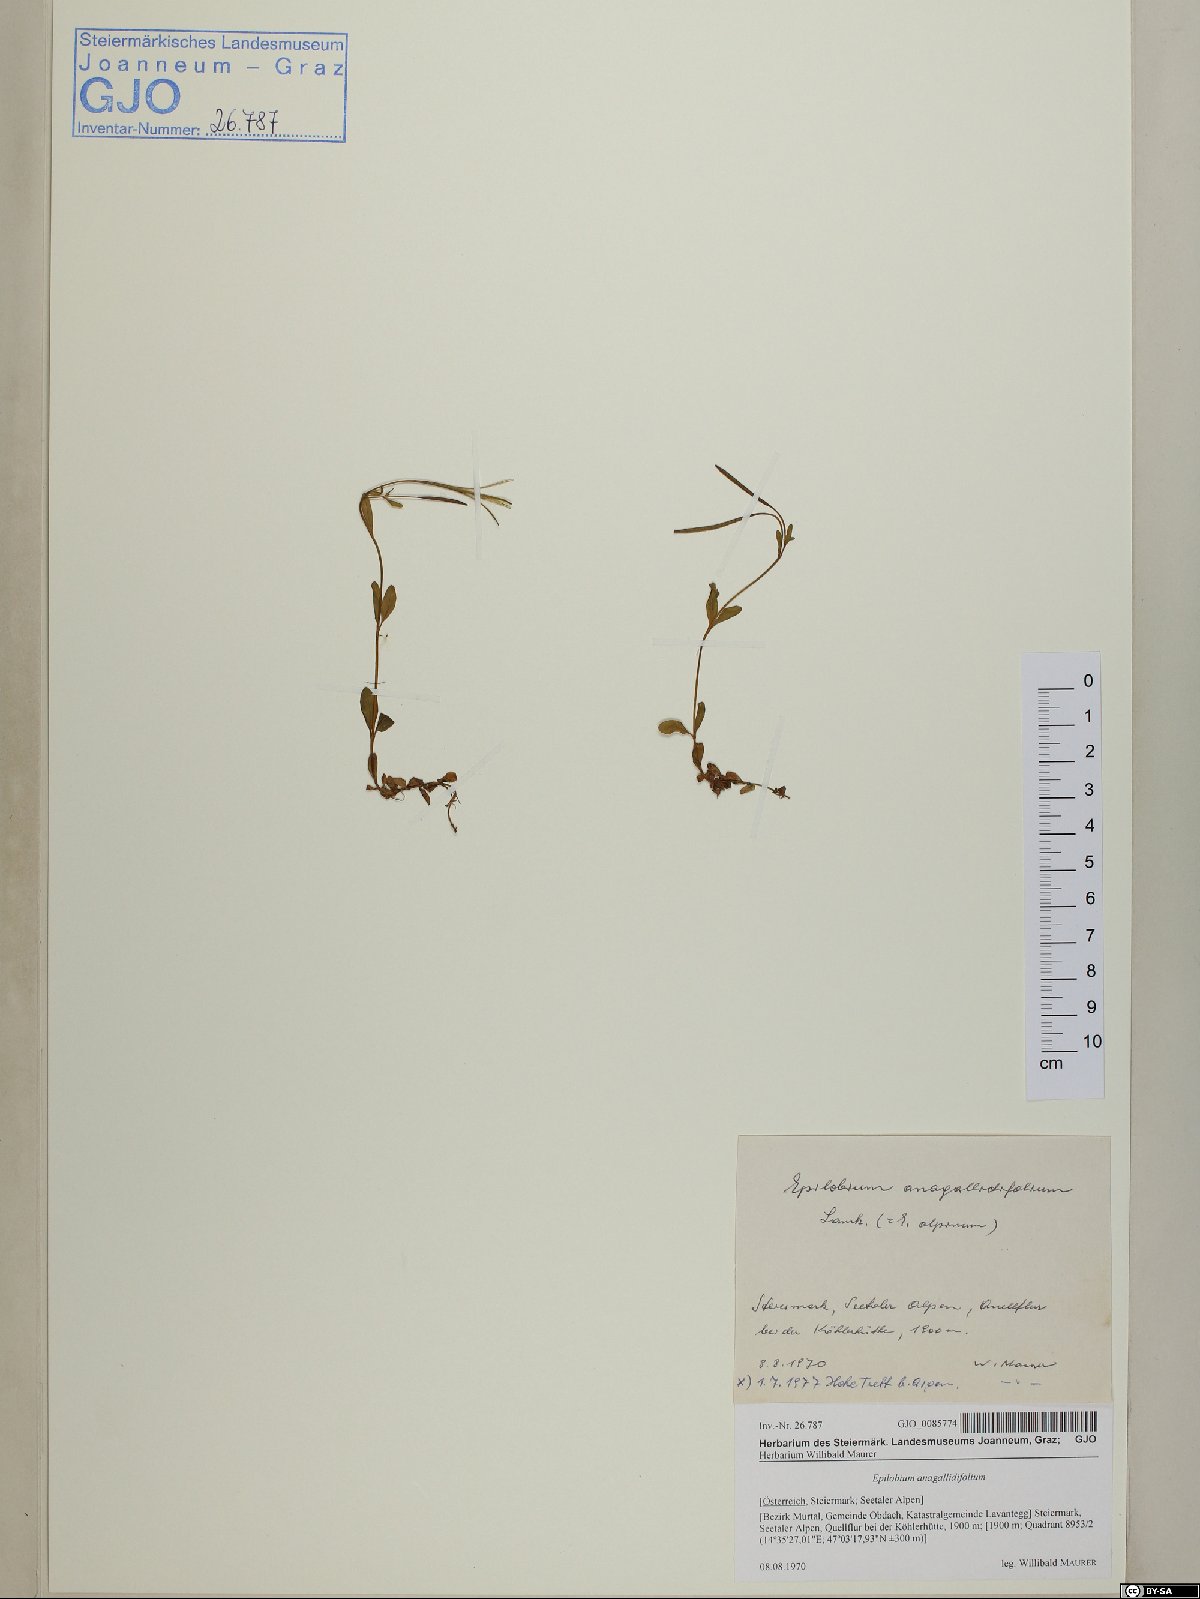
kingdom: Plantae
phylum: Tracheophyta
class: Magnoliopsida
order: Myrtales
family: Onagraceae
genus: Epilobium
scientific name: Epilobium anagallidifolium
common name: Alpine willowherb
